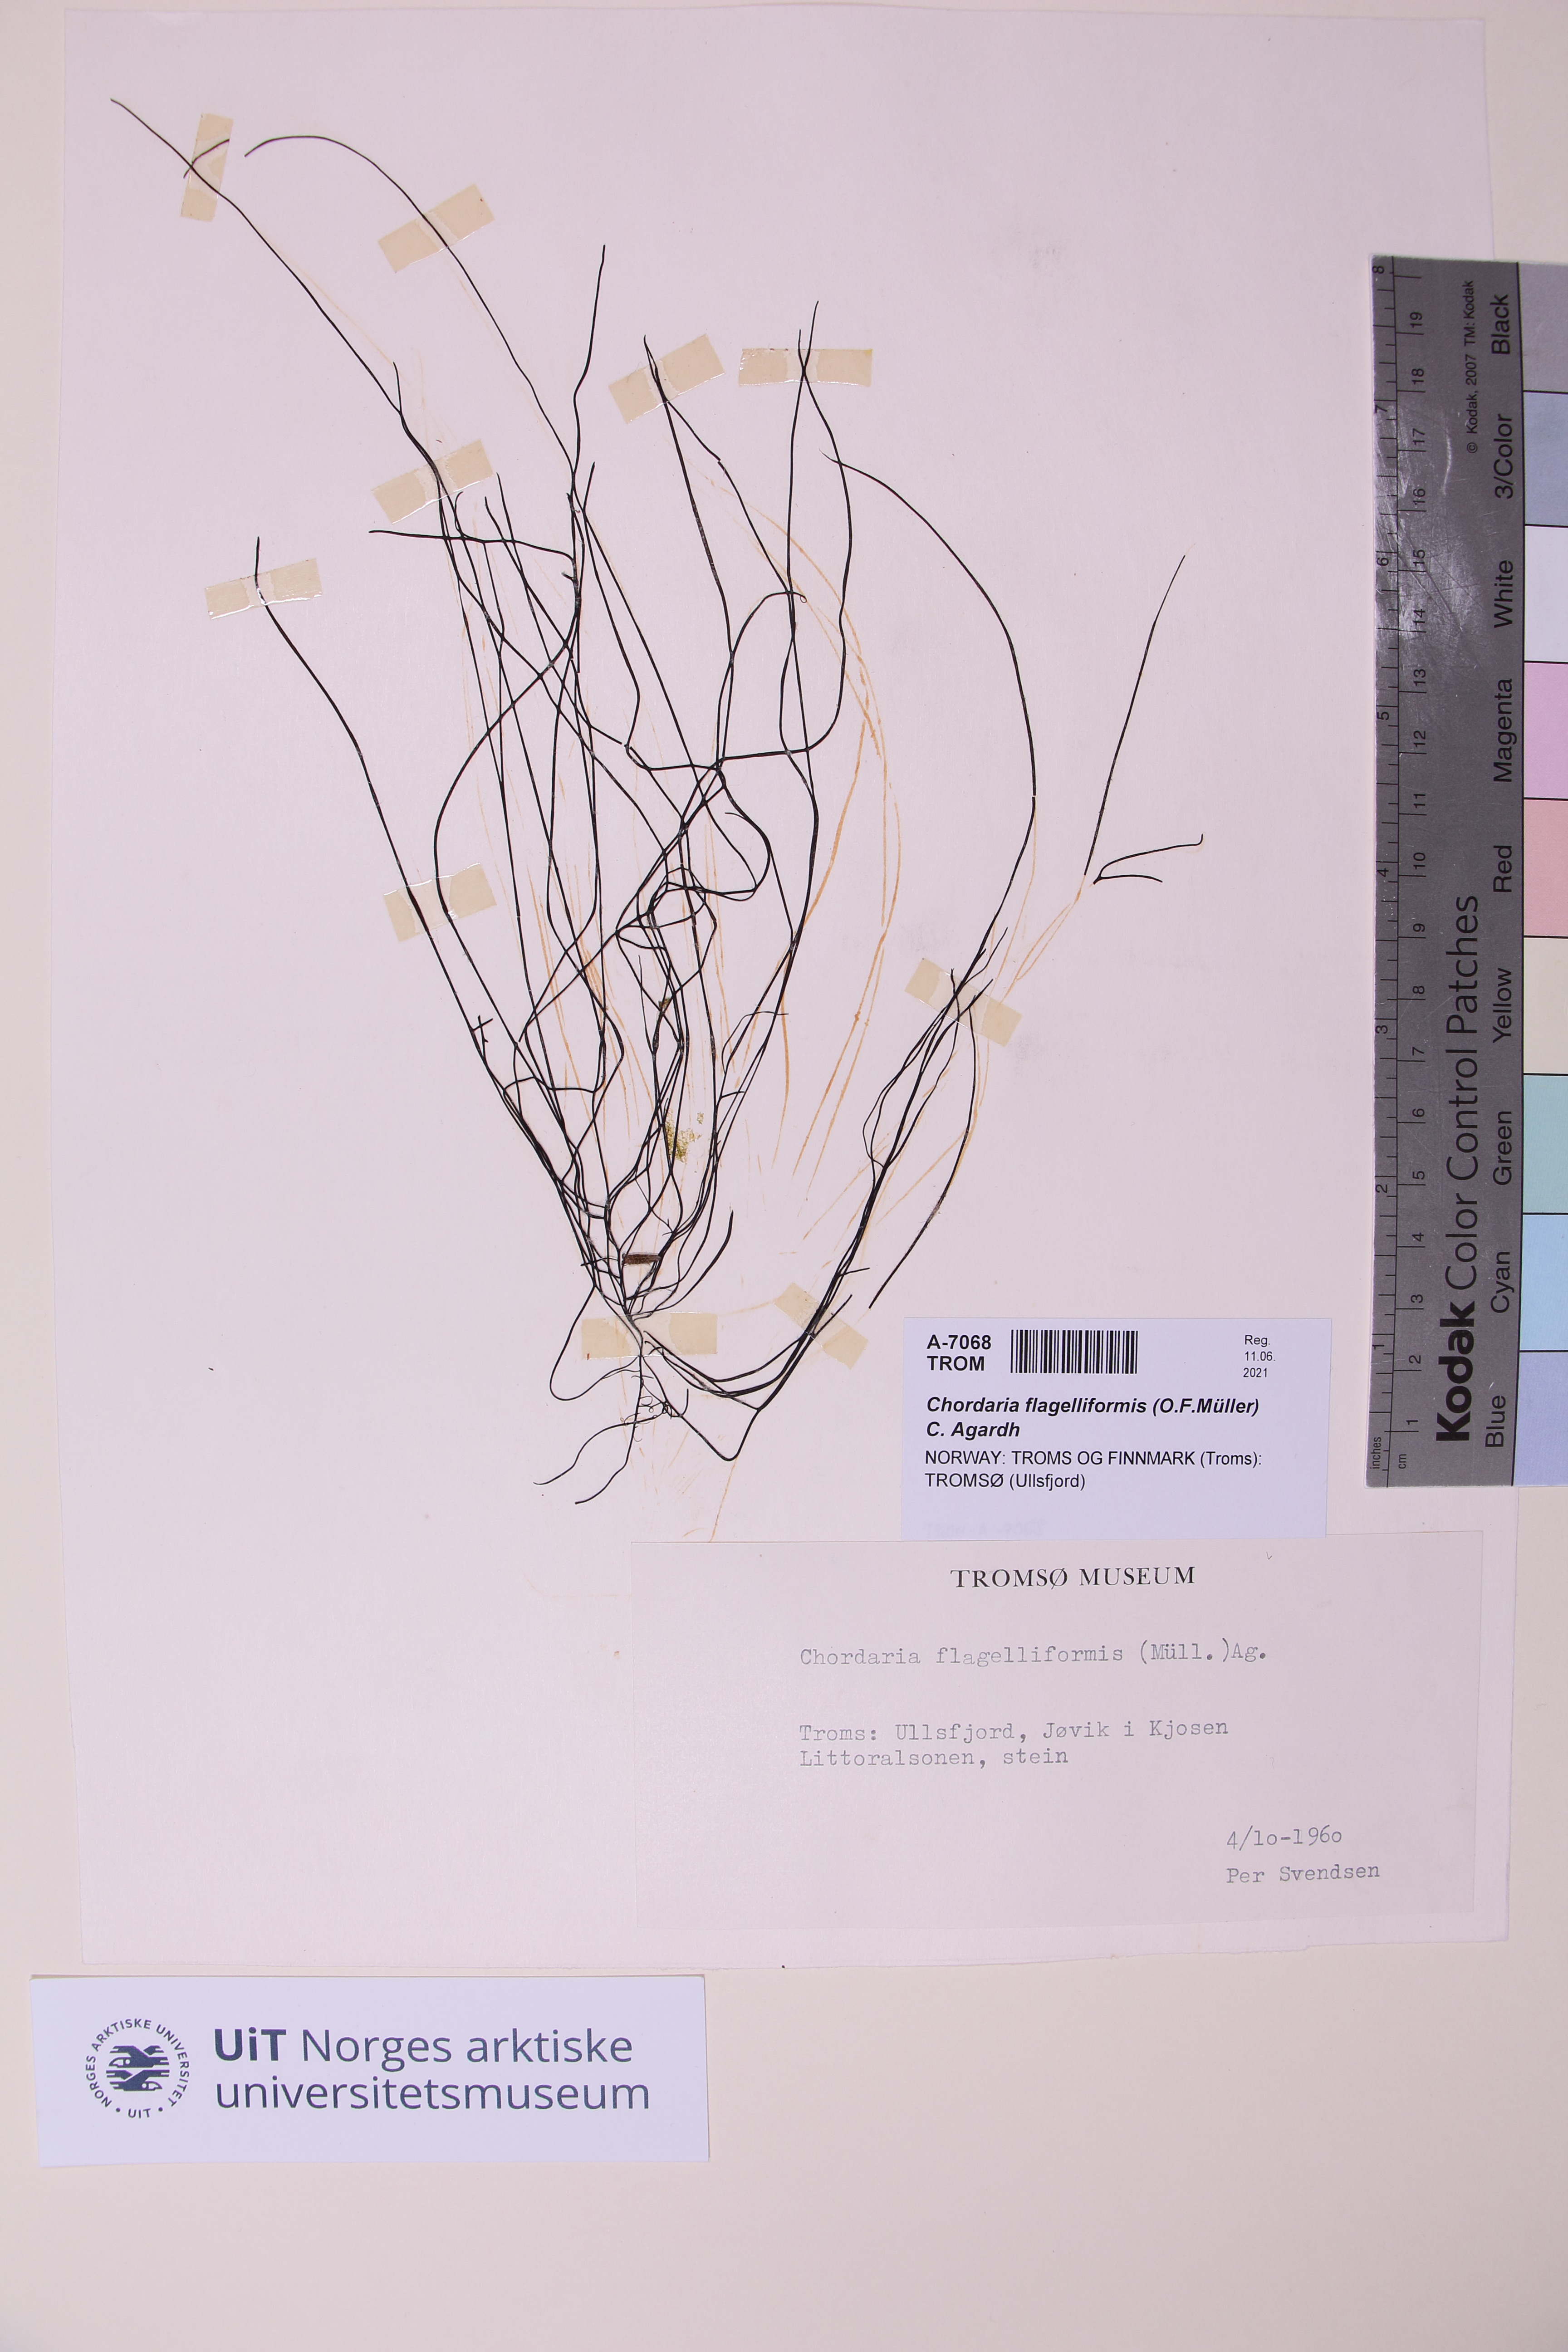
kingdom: Chromista
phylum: Ochrophyta
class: Phaeophyceae
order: Ectocarpales
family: Chordariaceae
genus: Chordaria
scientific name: Chordaria flagelliformis
